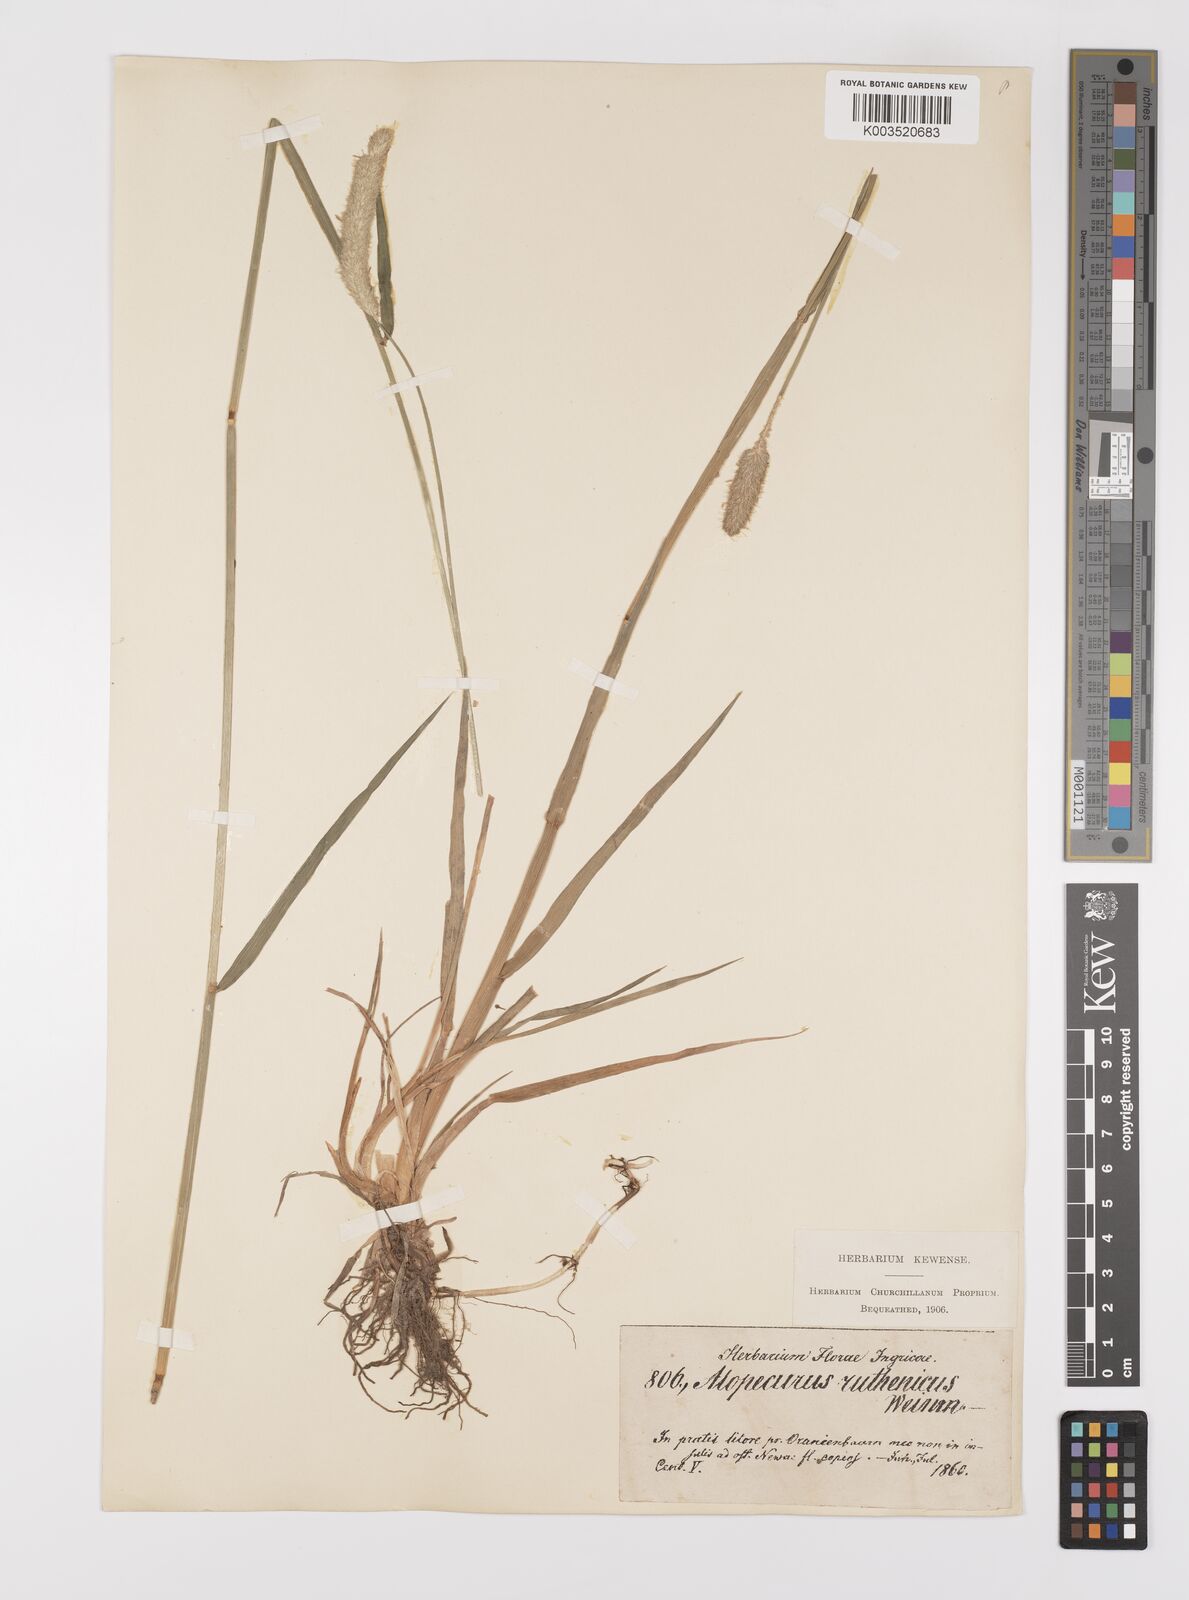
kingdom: Plantae
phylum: Tracheophyta
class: Liliopsida
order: Poales
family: Poaceae
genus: Alopecurus
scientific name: Alopecurus arundinaceus
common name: Creeping meadow foxtail
